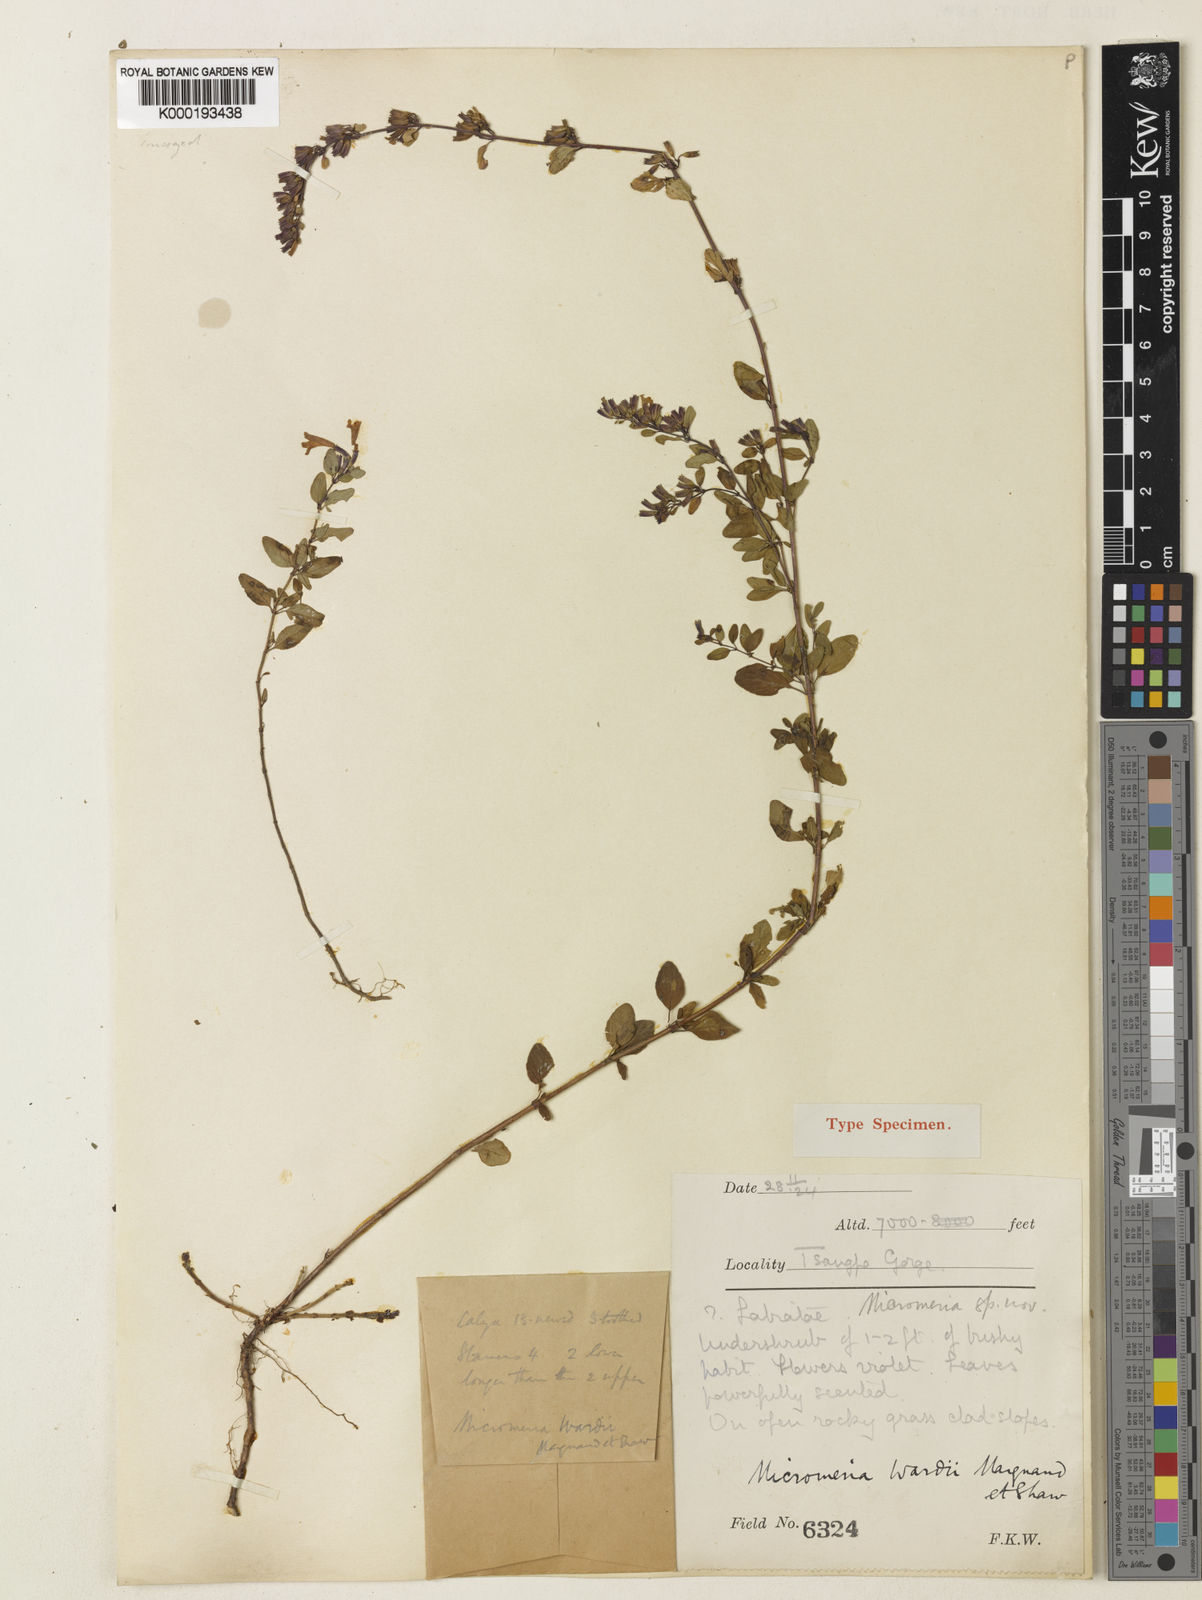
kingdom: Plantae
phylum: Tracheophyta
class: Magnoliopsida
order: Lamiales
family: Lamiaceae
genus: Clinopodium
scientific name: Clinopodium wardii
